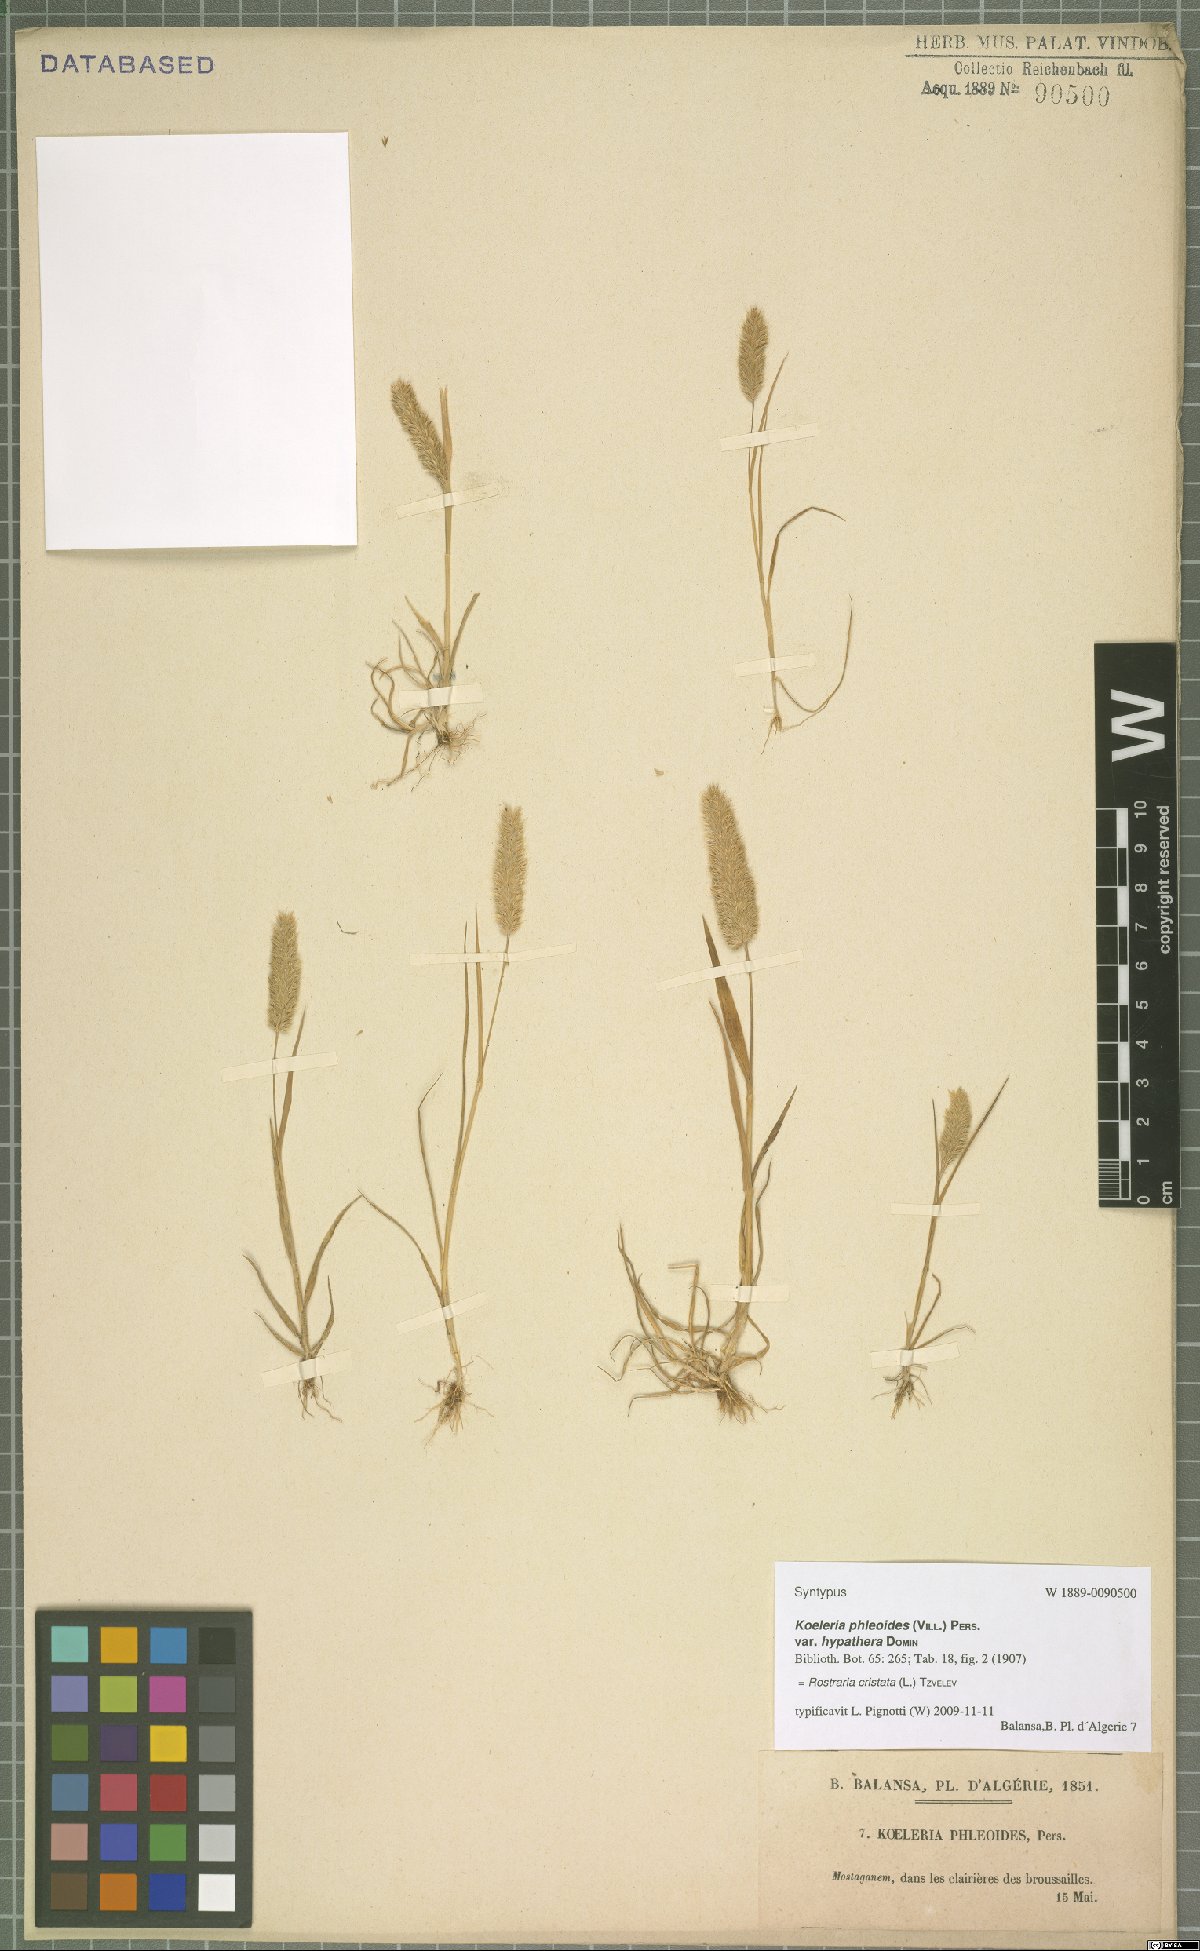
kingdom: Plantae
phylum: Tracheophyta
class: Liliopsida
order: Poales
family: Poaceae
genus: Rostraria
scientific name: Rostraria cristata
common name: Mediterranean hair-grass
